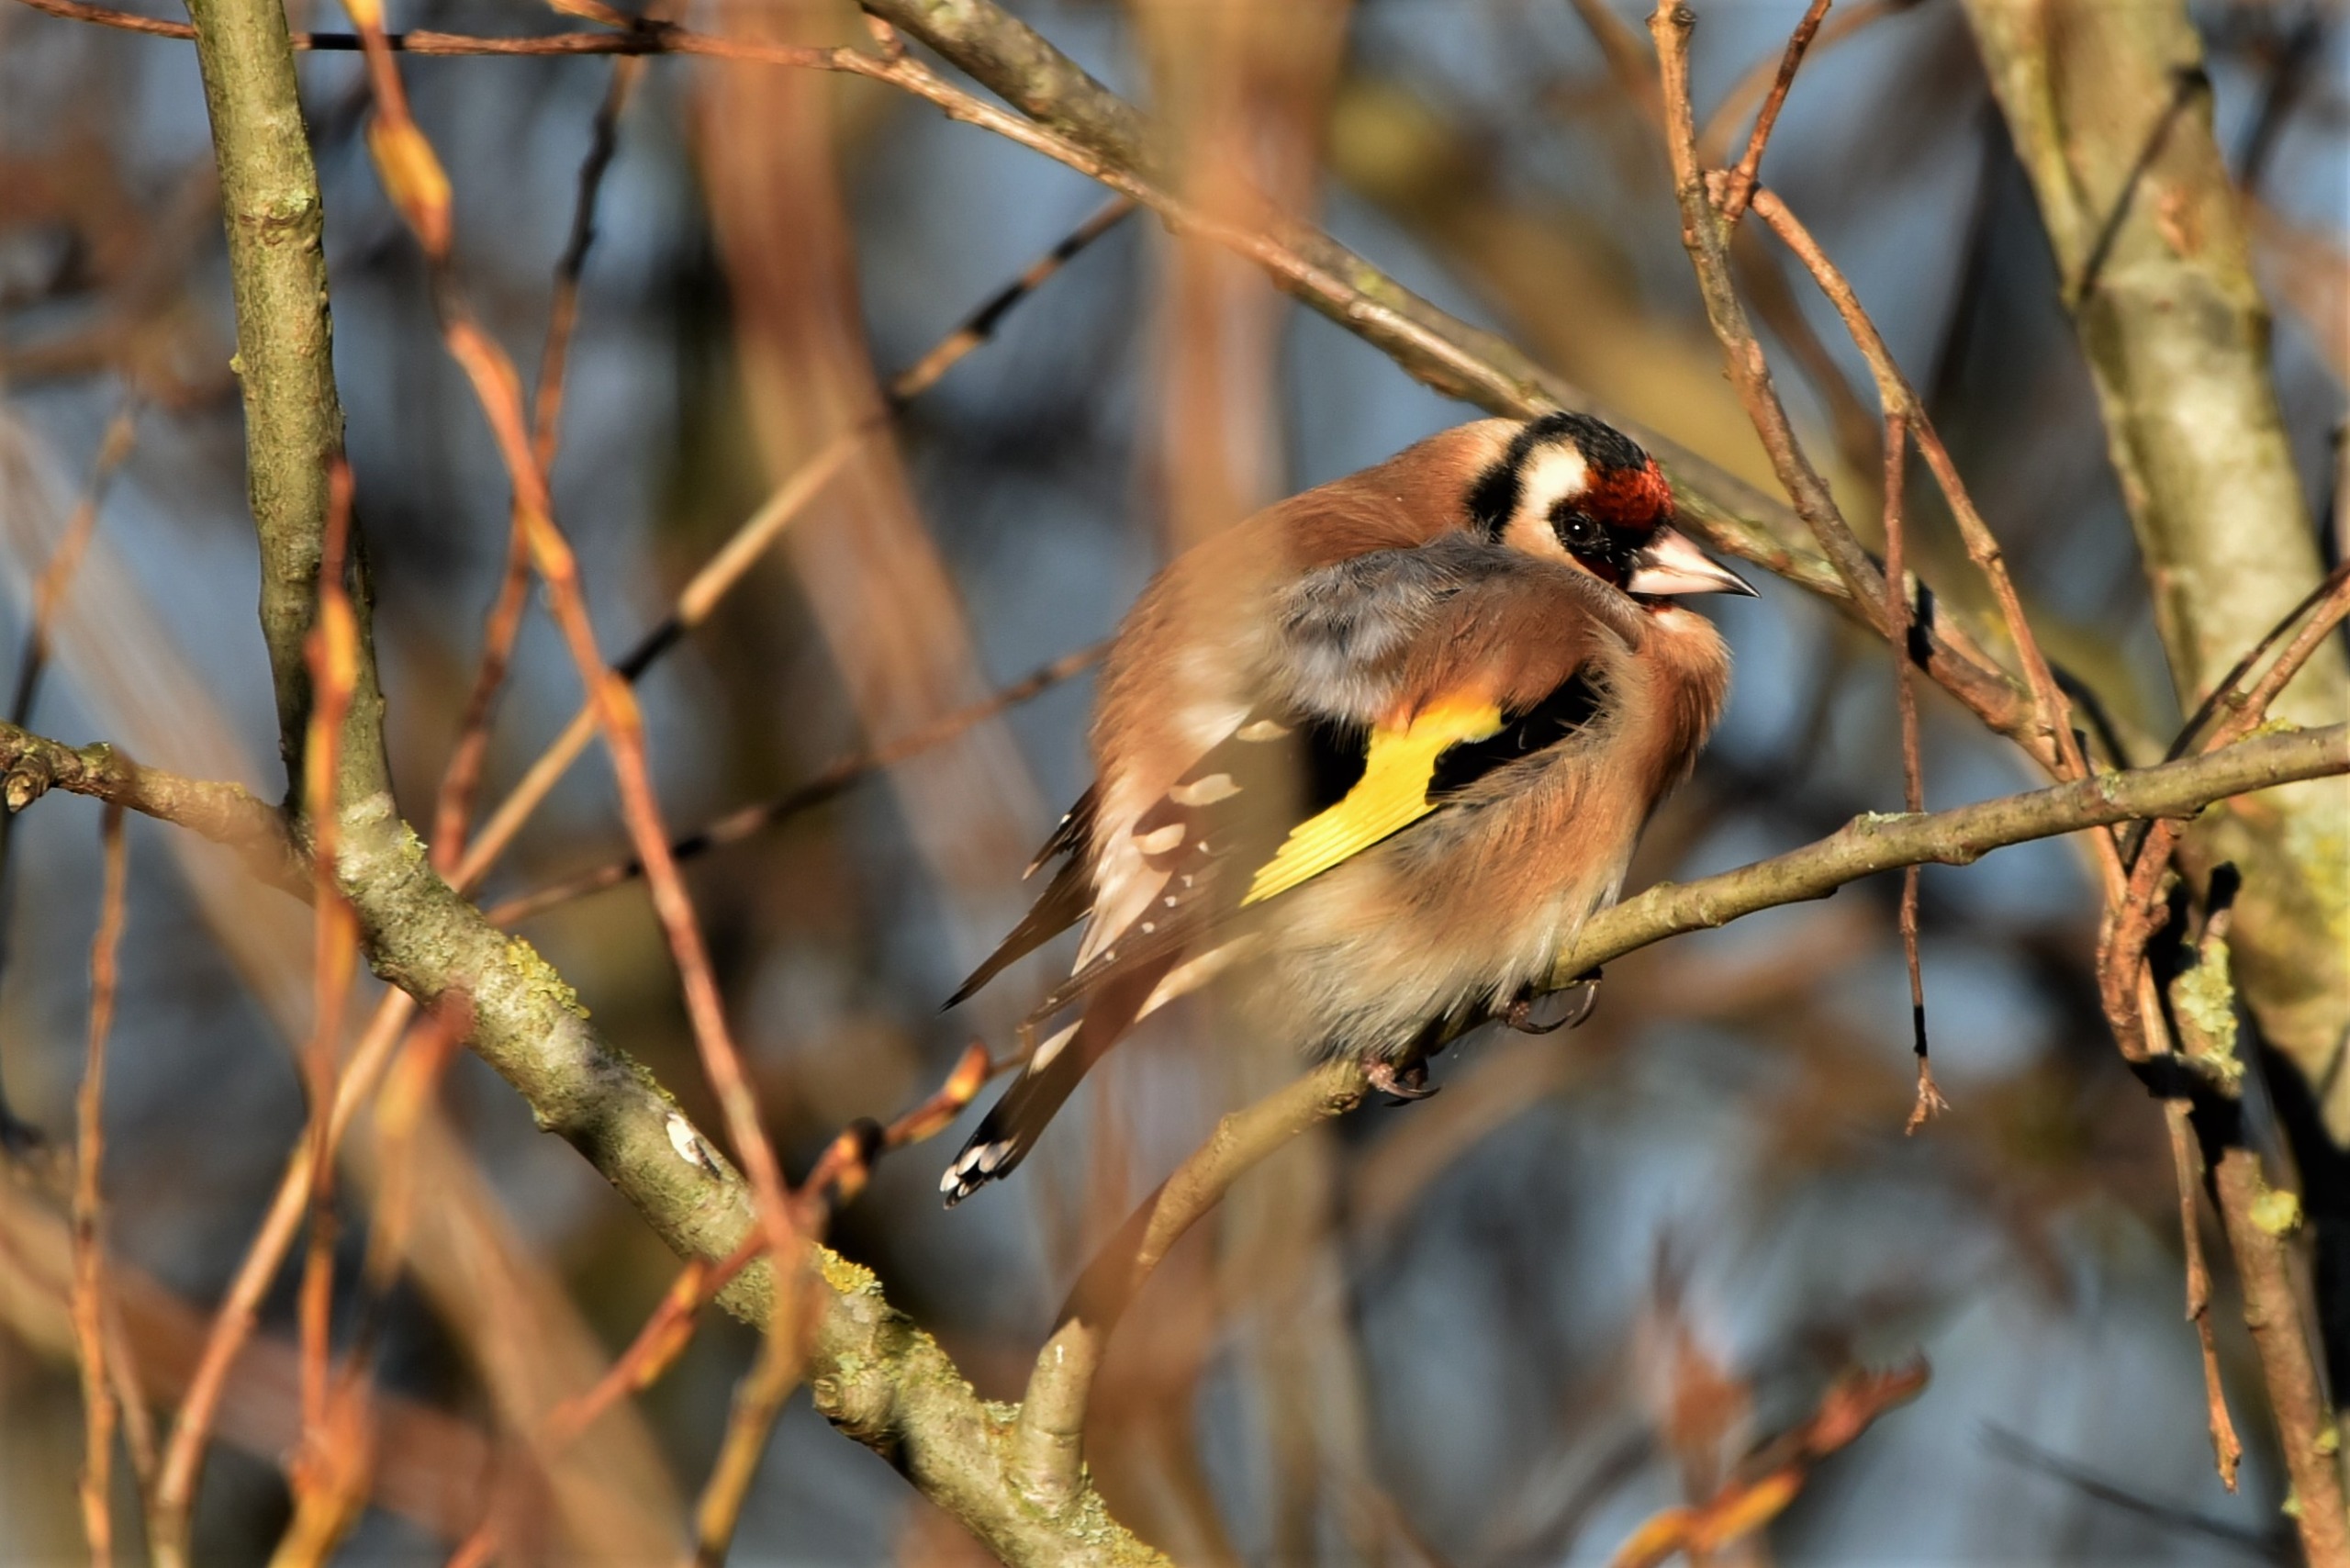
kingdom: Animalia
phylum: Chordata
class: Aves
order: Passeriformes
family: Fringillidae
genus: Carduelis
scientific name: Carduelis carduelis
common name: Stillits
